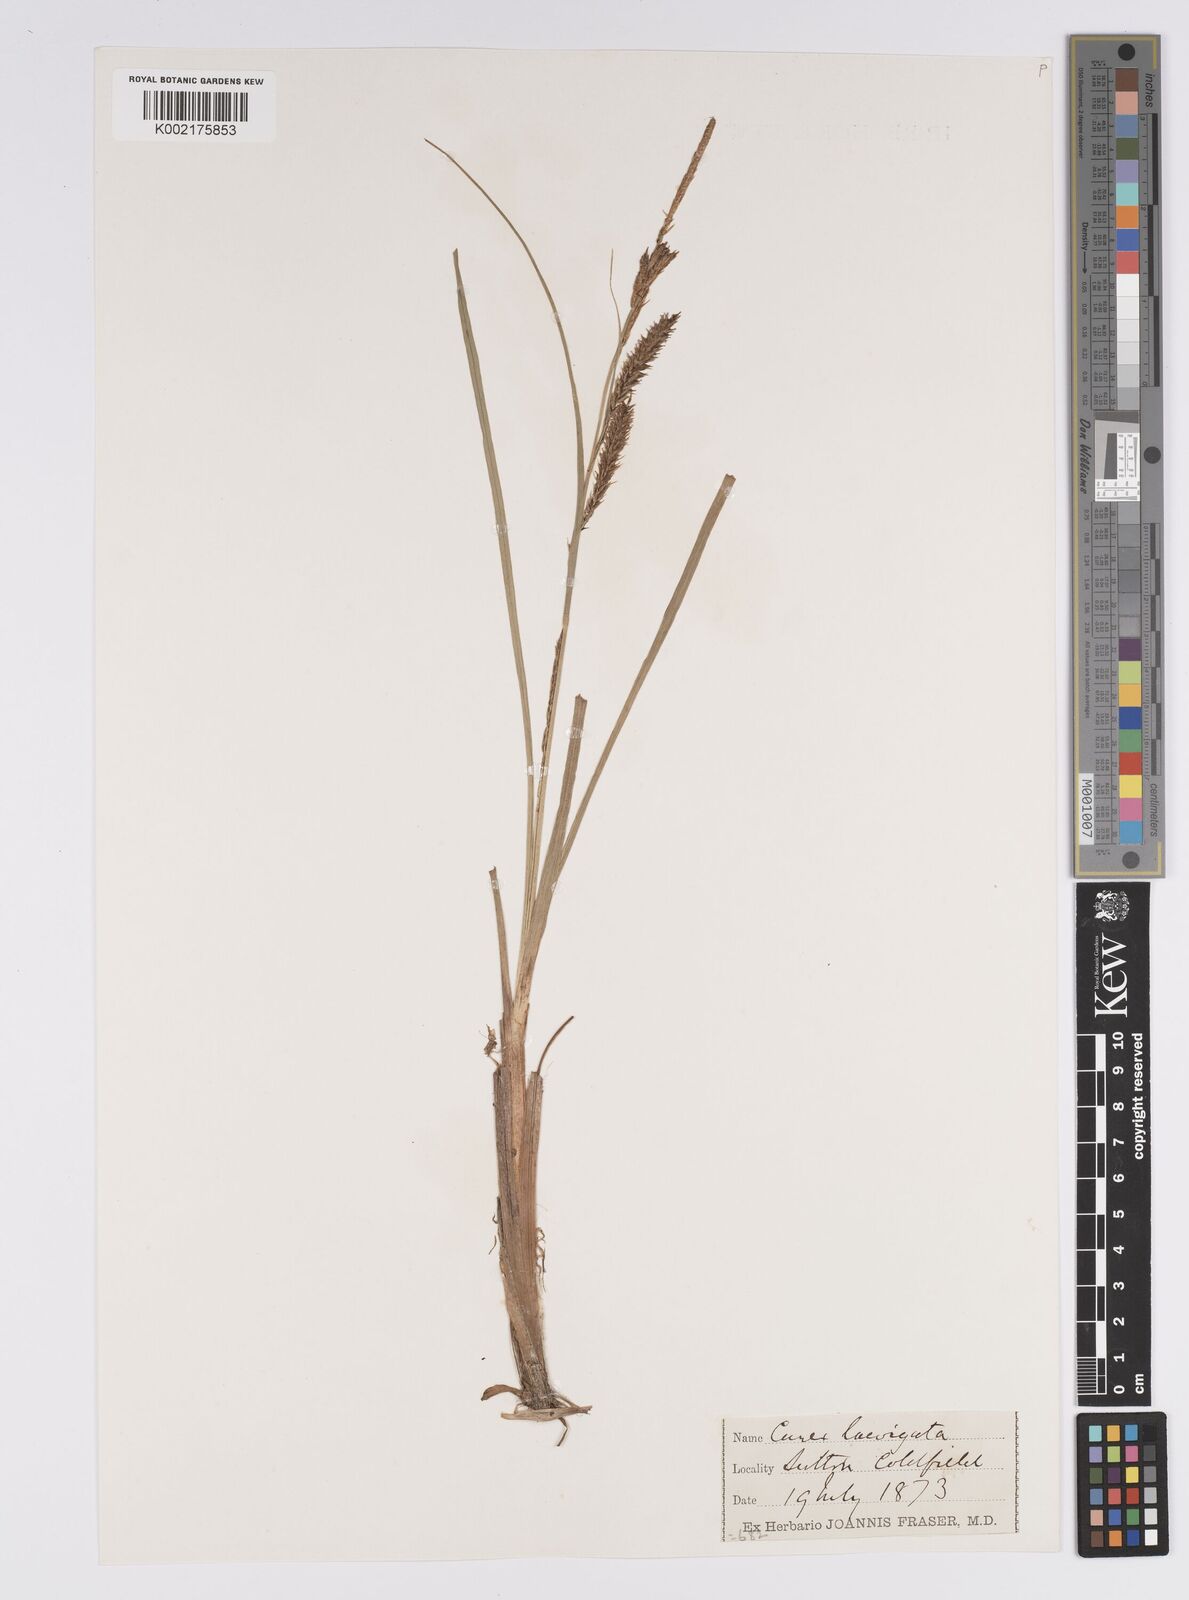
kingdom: Plantae
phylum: Tracheophyta
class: Liliopsida
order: Poales
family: Cyperaceae
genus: Carex
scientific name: Carex laevigata
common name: Smooth-stalked sedge
